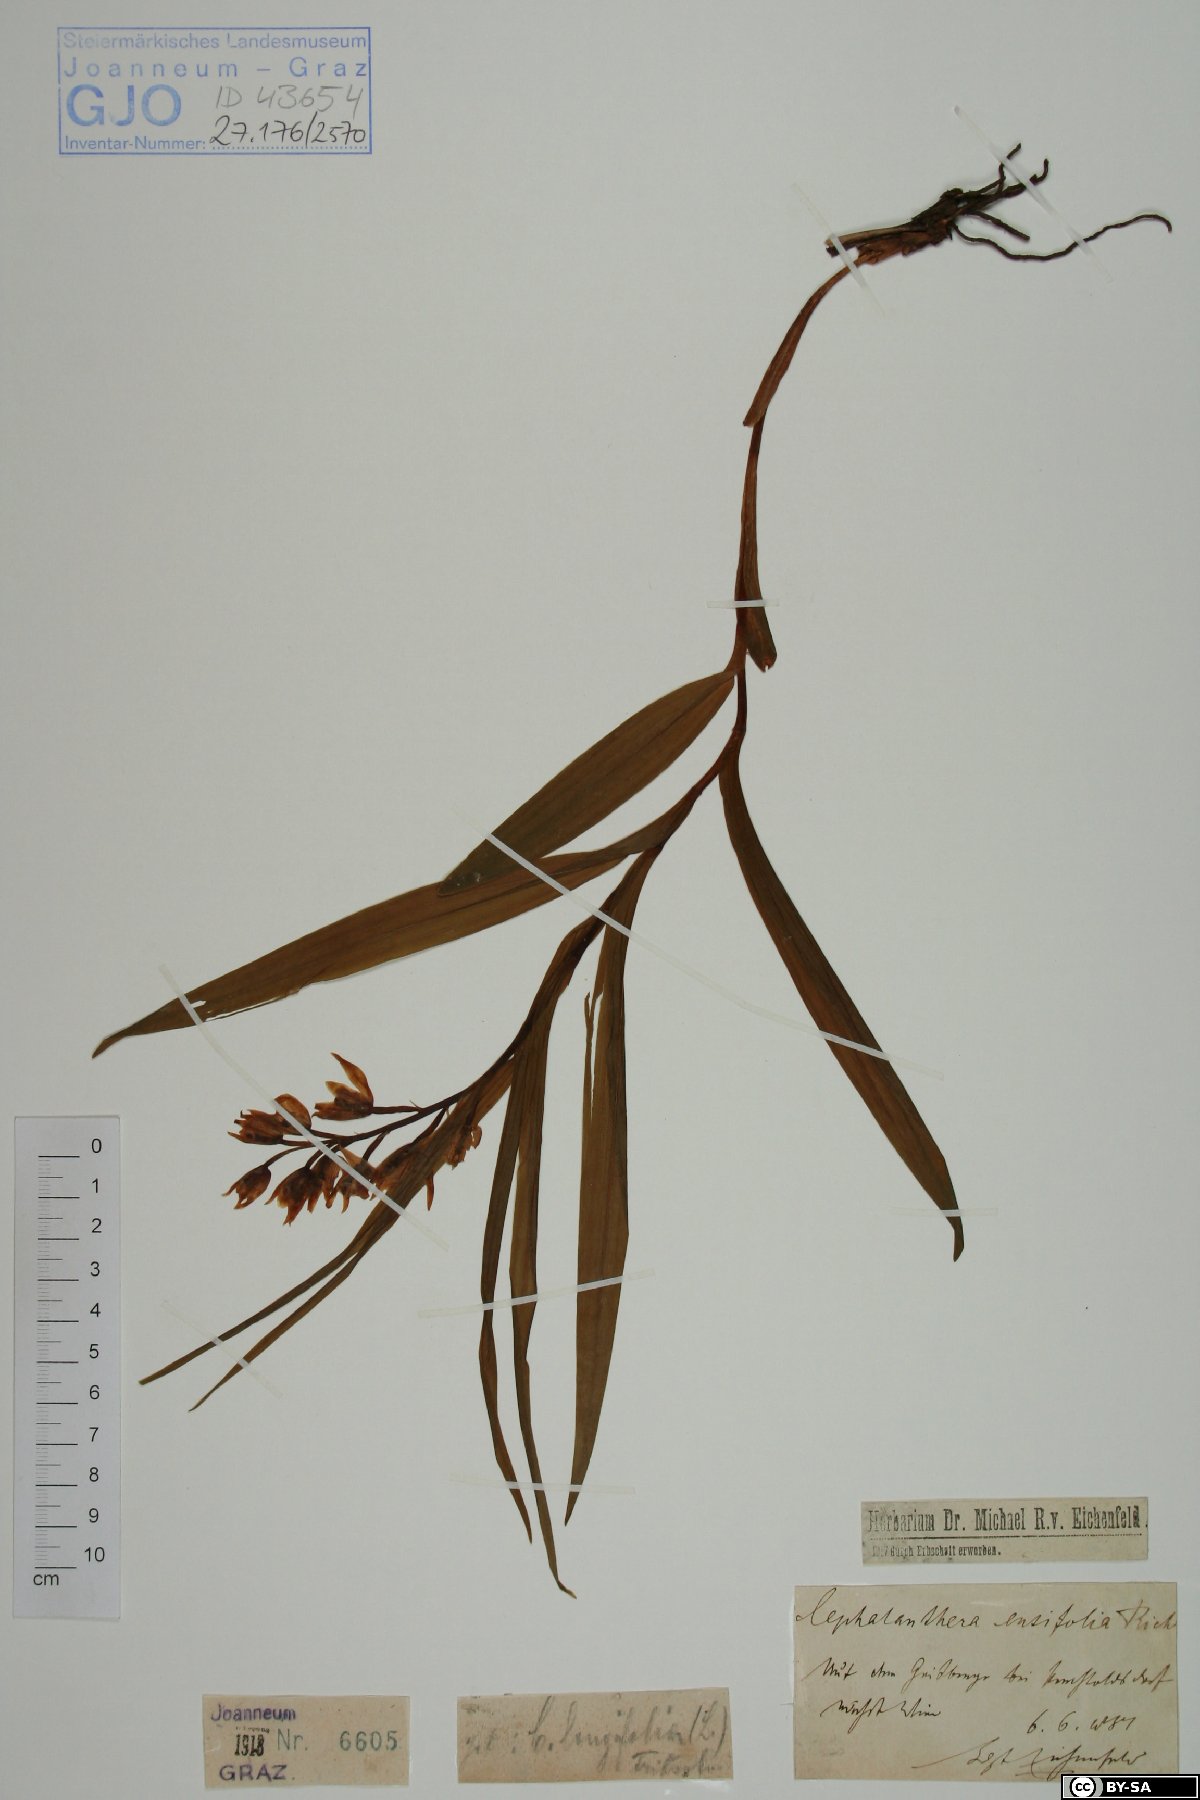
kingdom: Plantae
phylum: Tracheophyta
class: Liliopsida
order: Asparagales
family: Orchidaceae
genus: Cephalanthera
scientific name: Cephalanthera longifolia
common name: Narrow-leaved helleborine
